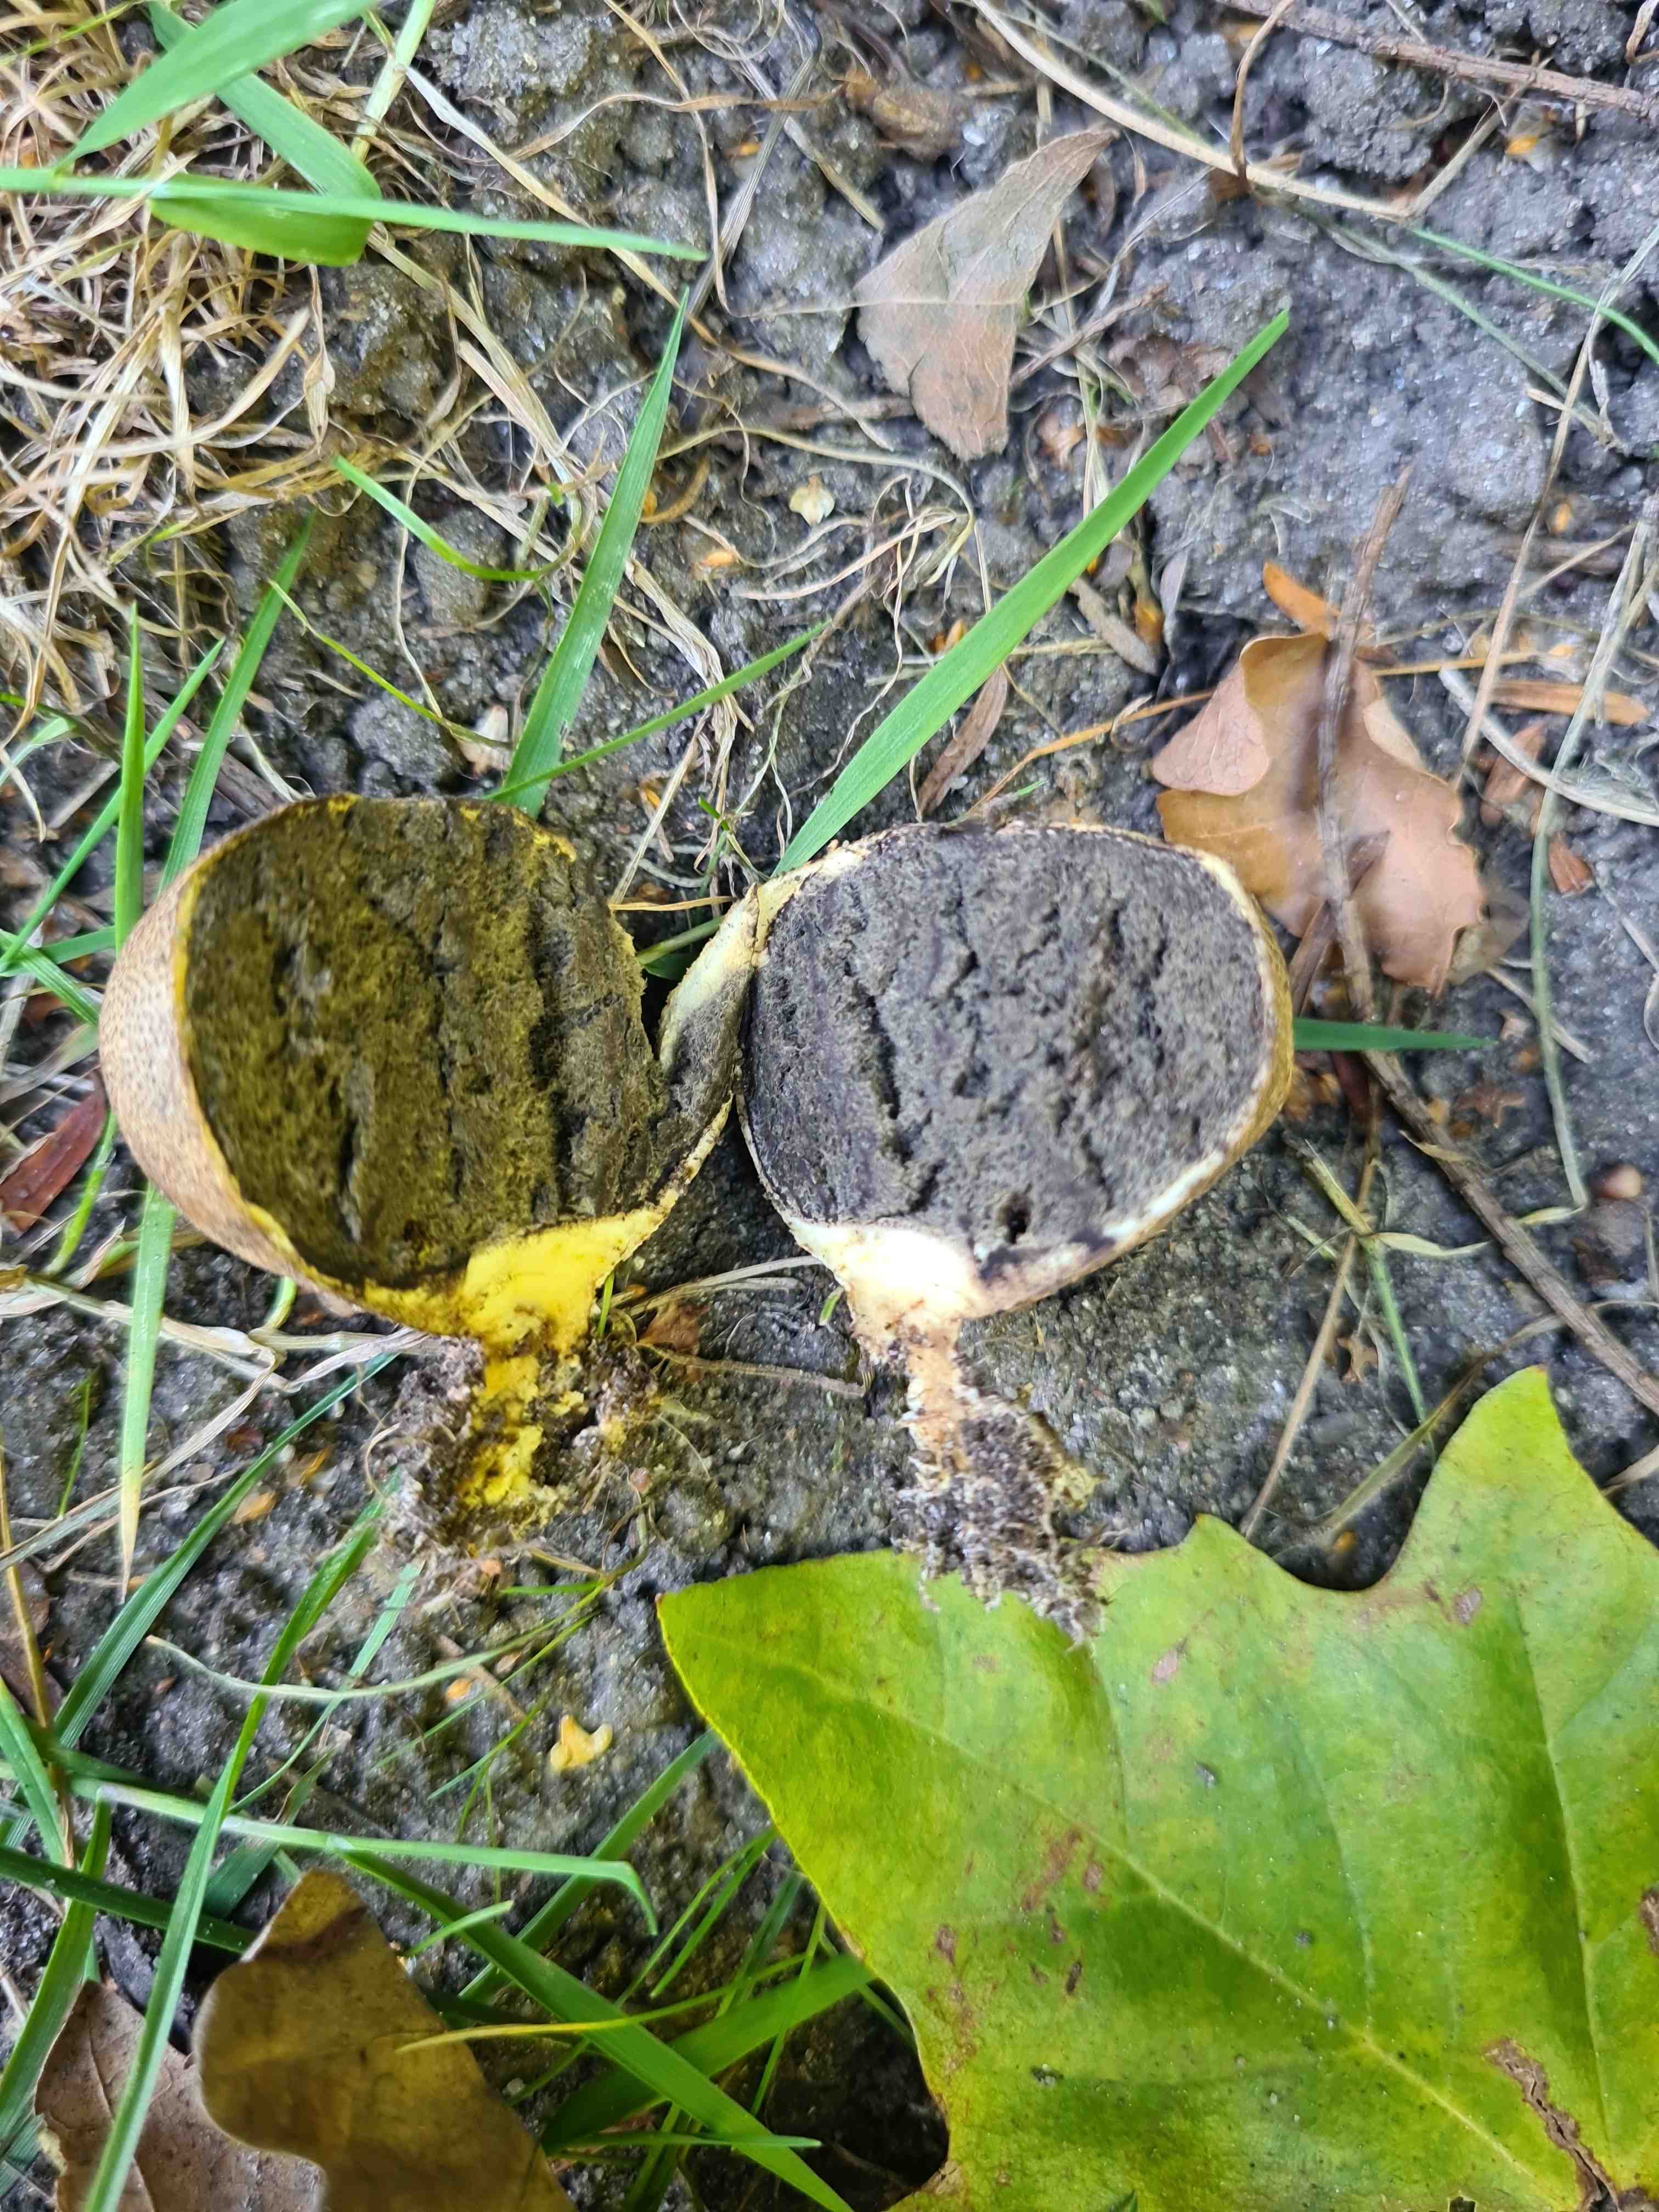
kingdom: Fungi
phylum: Basidiomycota
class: Agaricomycetes
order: Boletales
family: Sclerodermataceae
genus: Scleroderma
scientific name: Scleroderma areolatum
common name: plettet bruskbold
